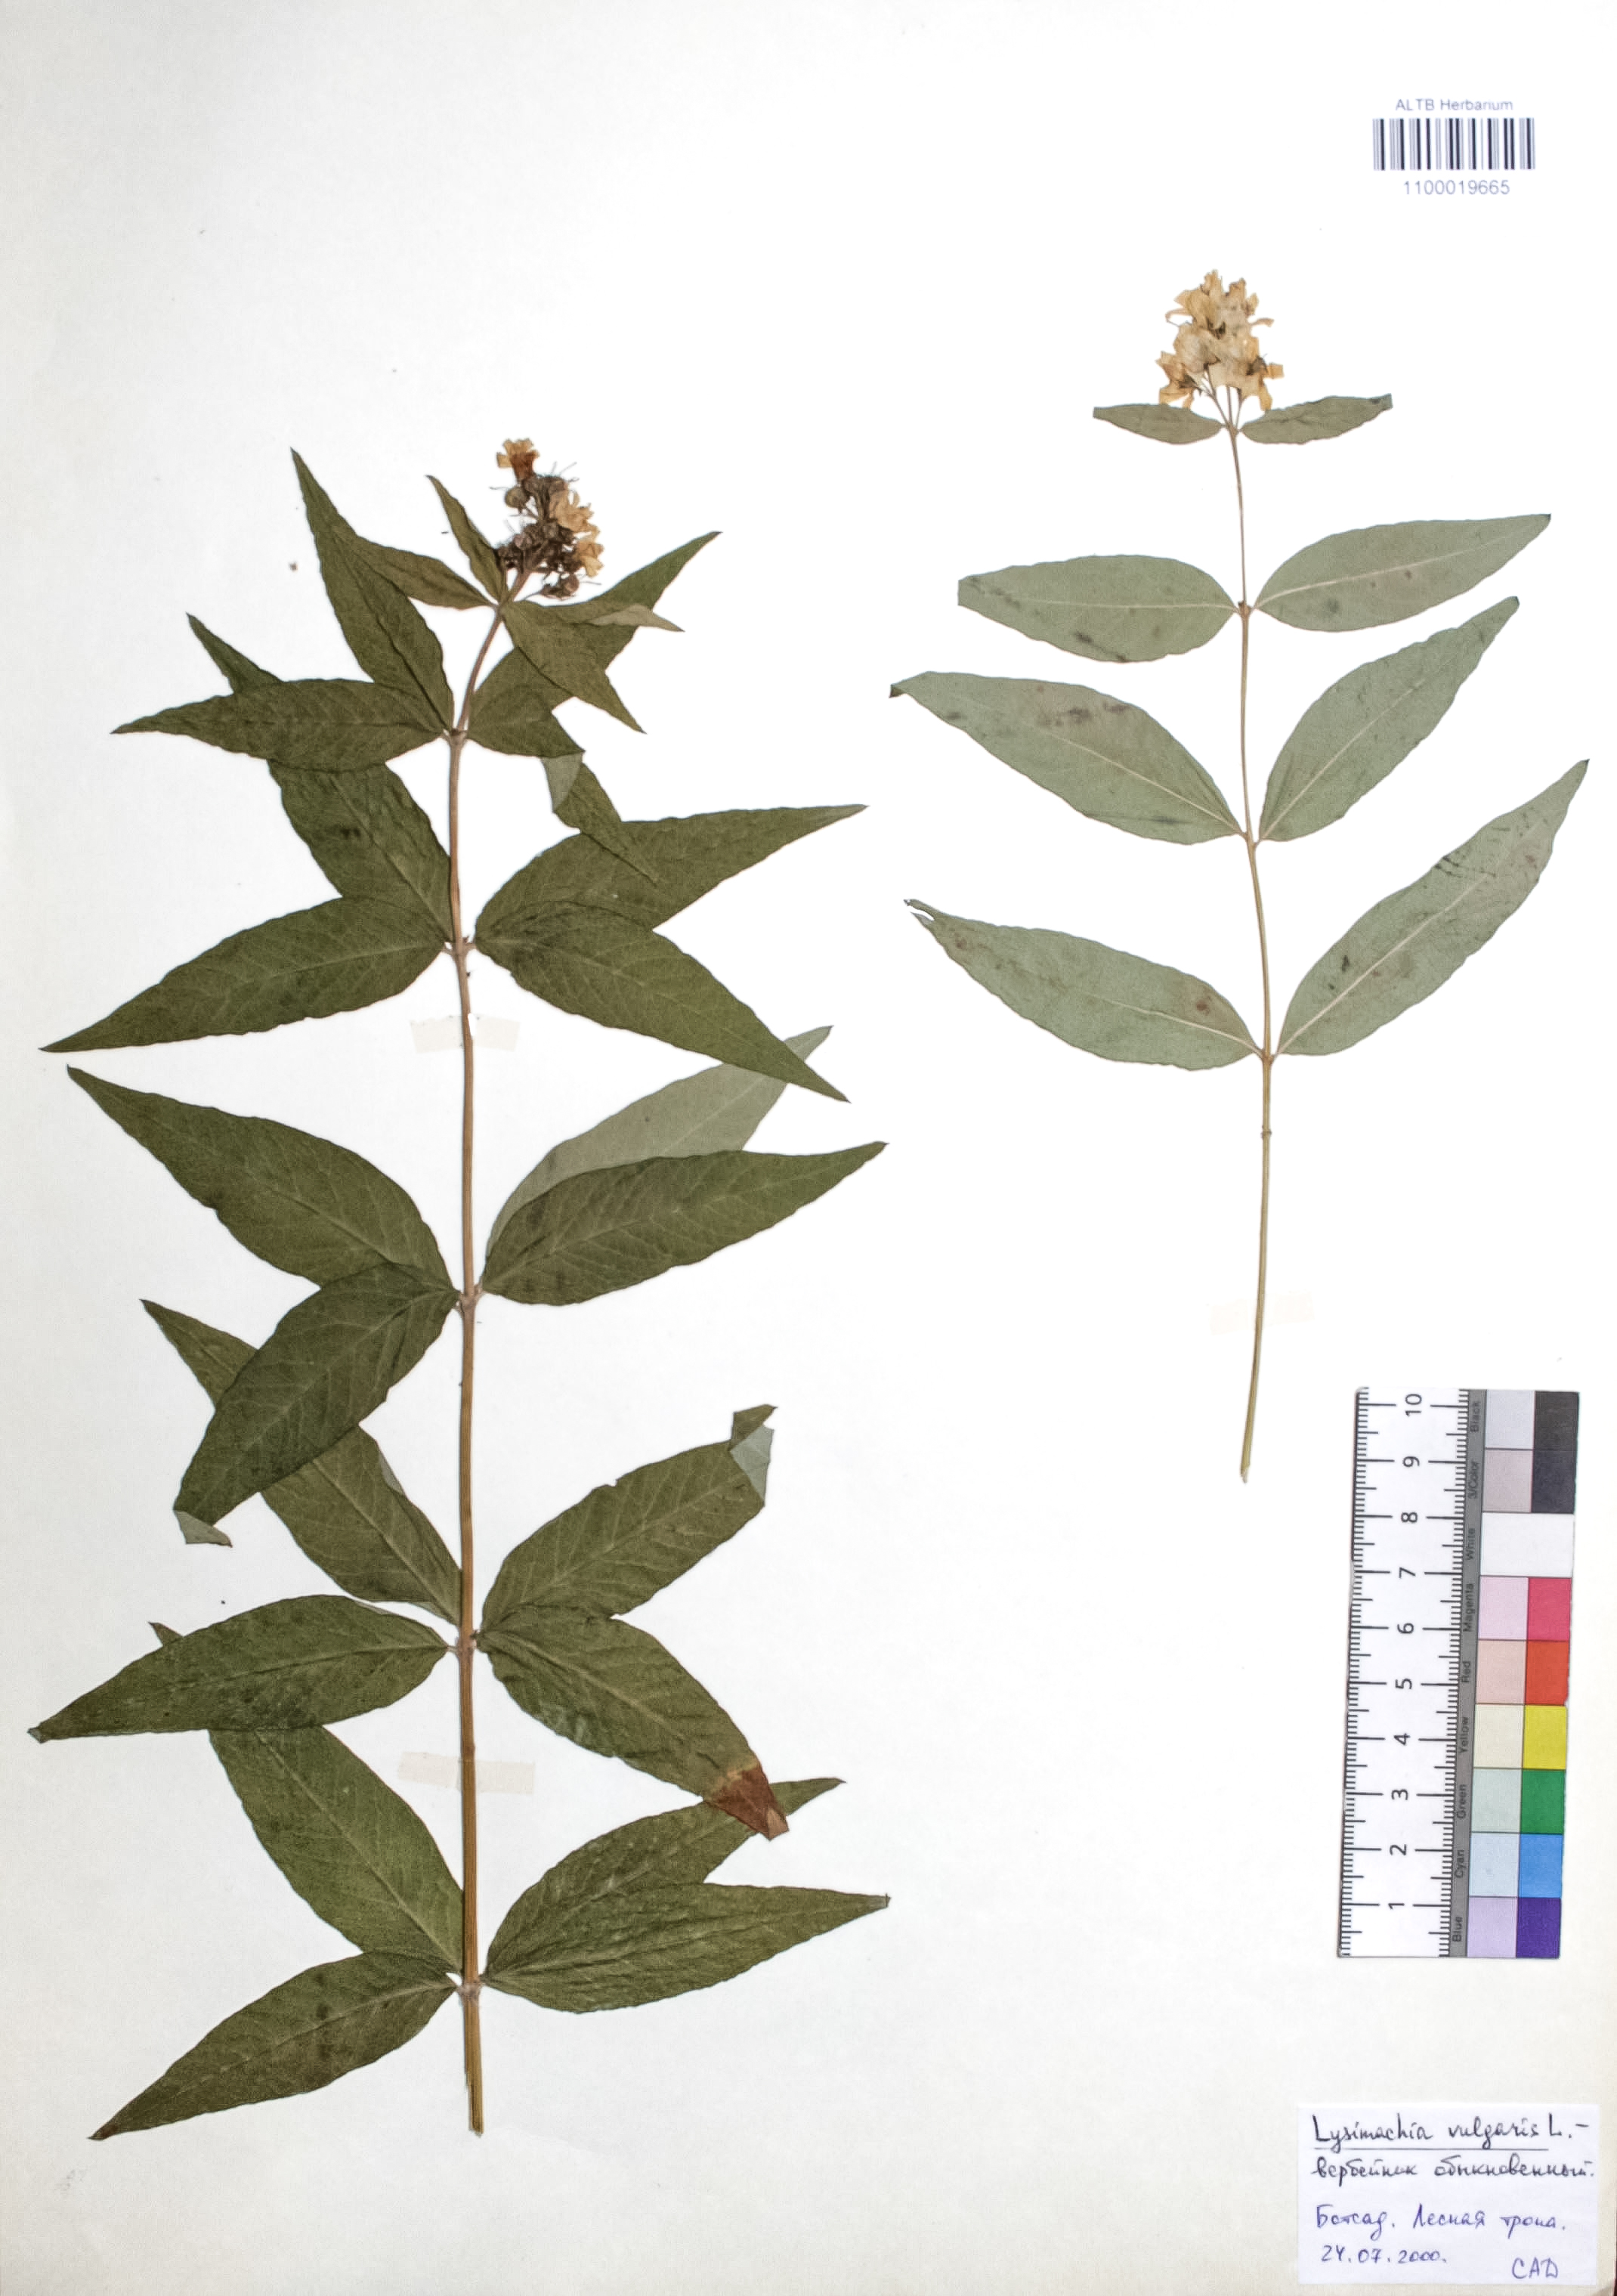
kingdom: Plantae
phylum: Tracheophyta
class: Magnoliopsida
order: Ericales
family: Primulaceae
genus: Lysimachia
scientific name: Lysimachia vulgaris
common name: Yellow loosestrife
